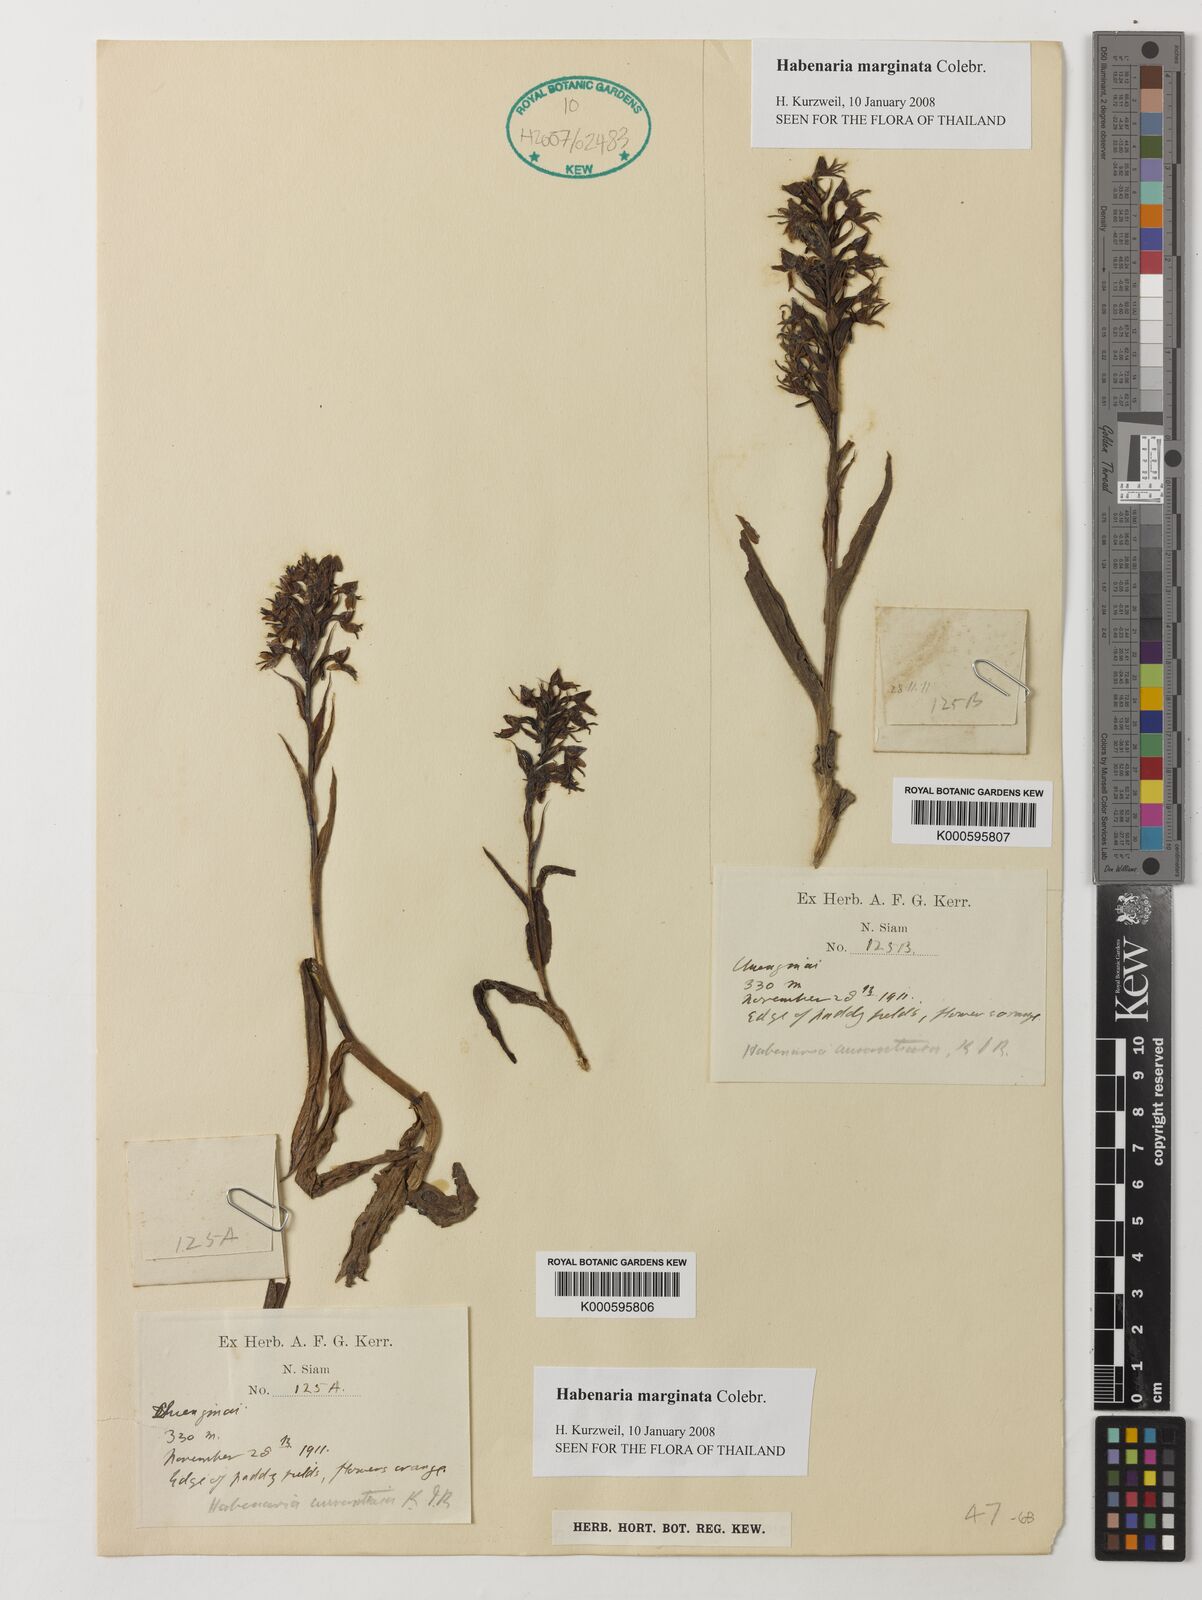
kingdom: Plantae
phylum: Tracheophyta
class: Liliopsida
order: Asparagales
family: Orchidaceae
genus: Habenaria
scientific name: Habenaria marginata
